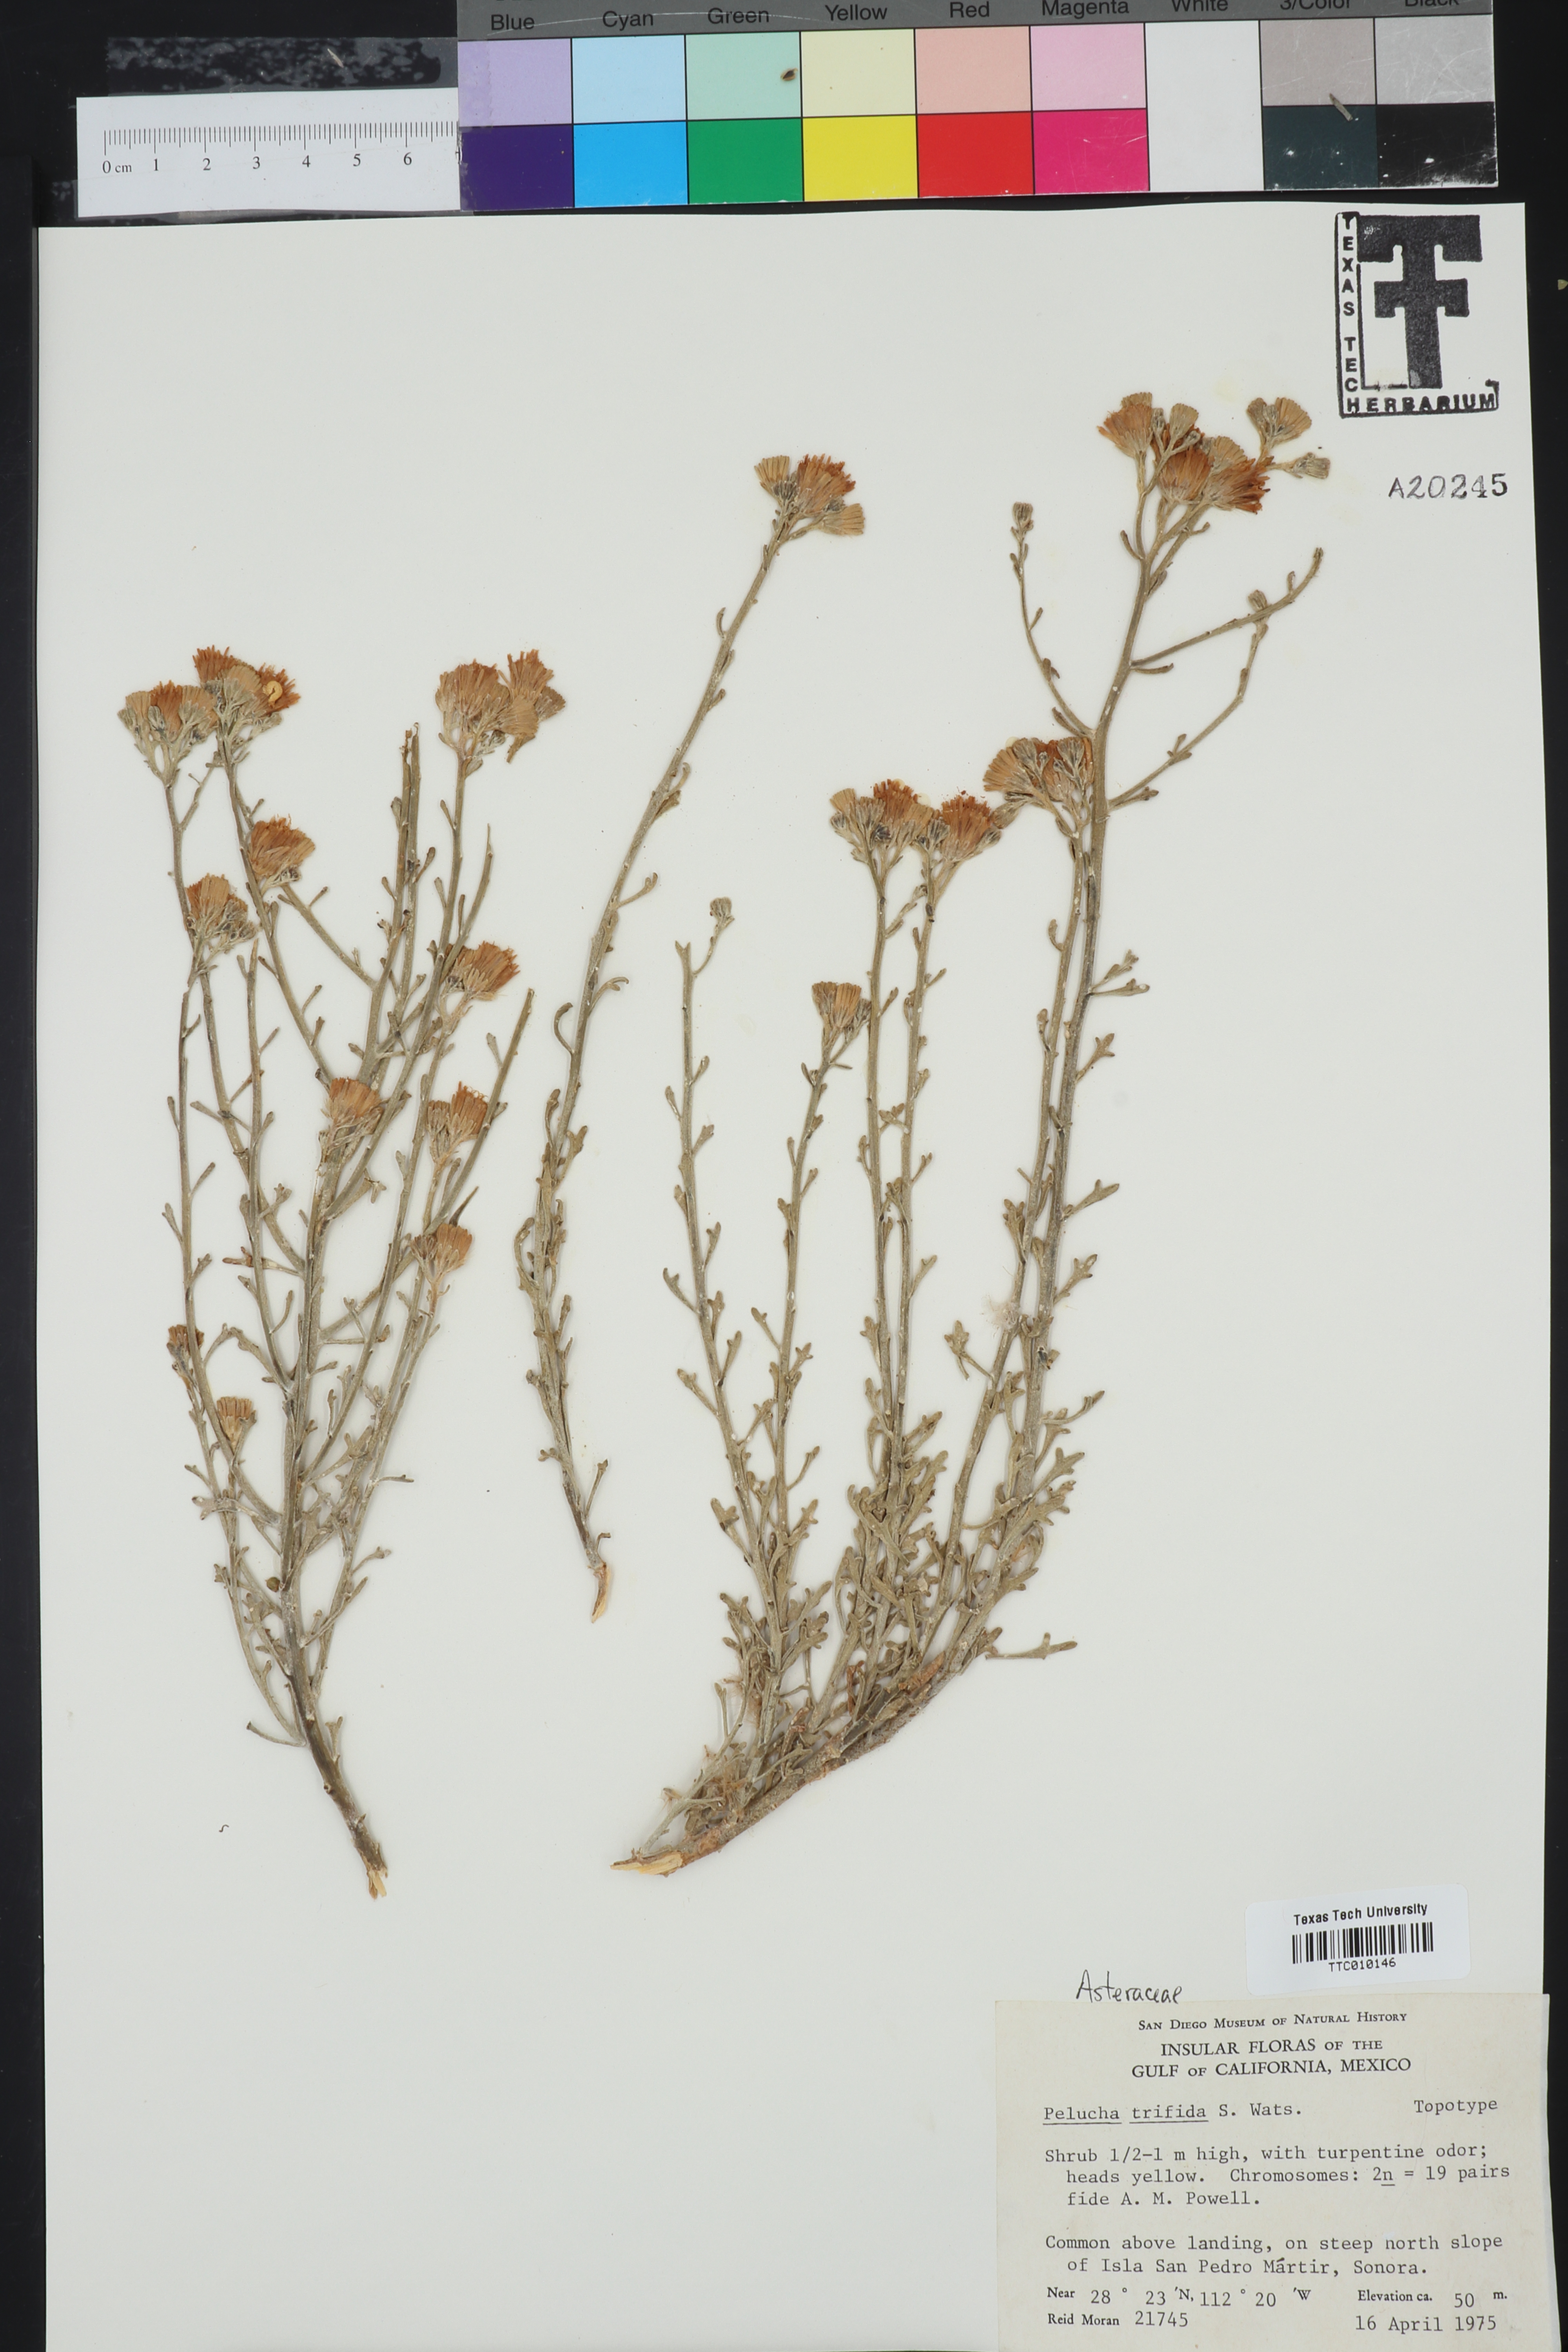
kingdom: Plantae
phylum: Tracheophyta
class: Magnoliopsida
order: Asterales
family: Asteraceae
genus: Pelucha
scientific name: Pelucha trifida
